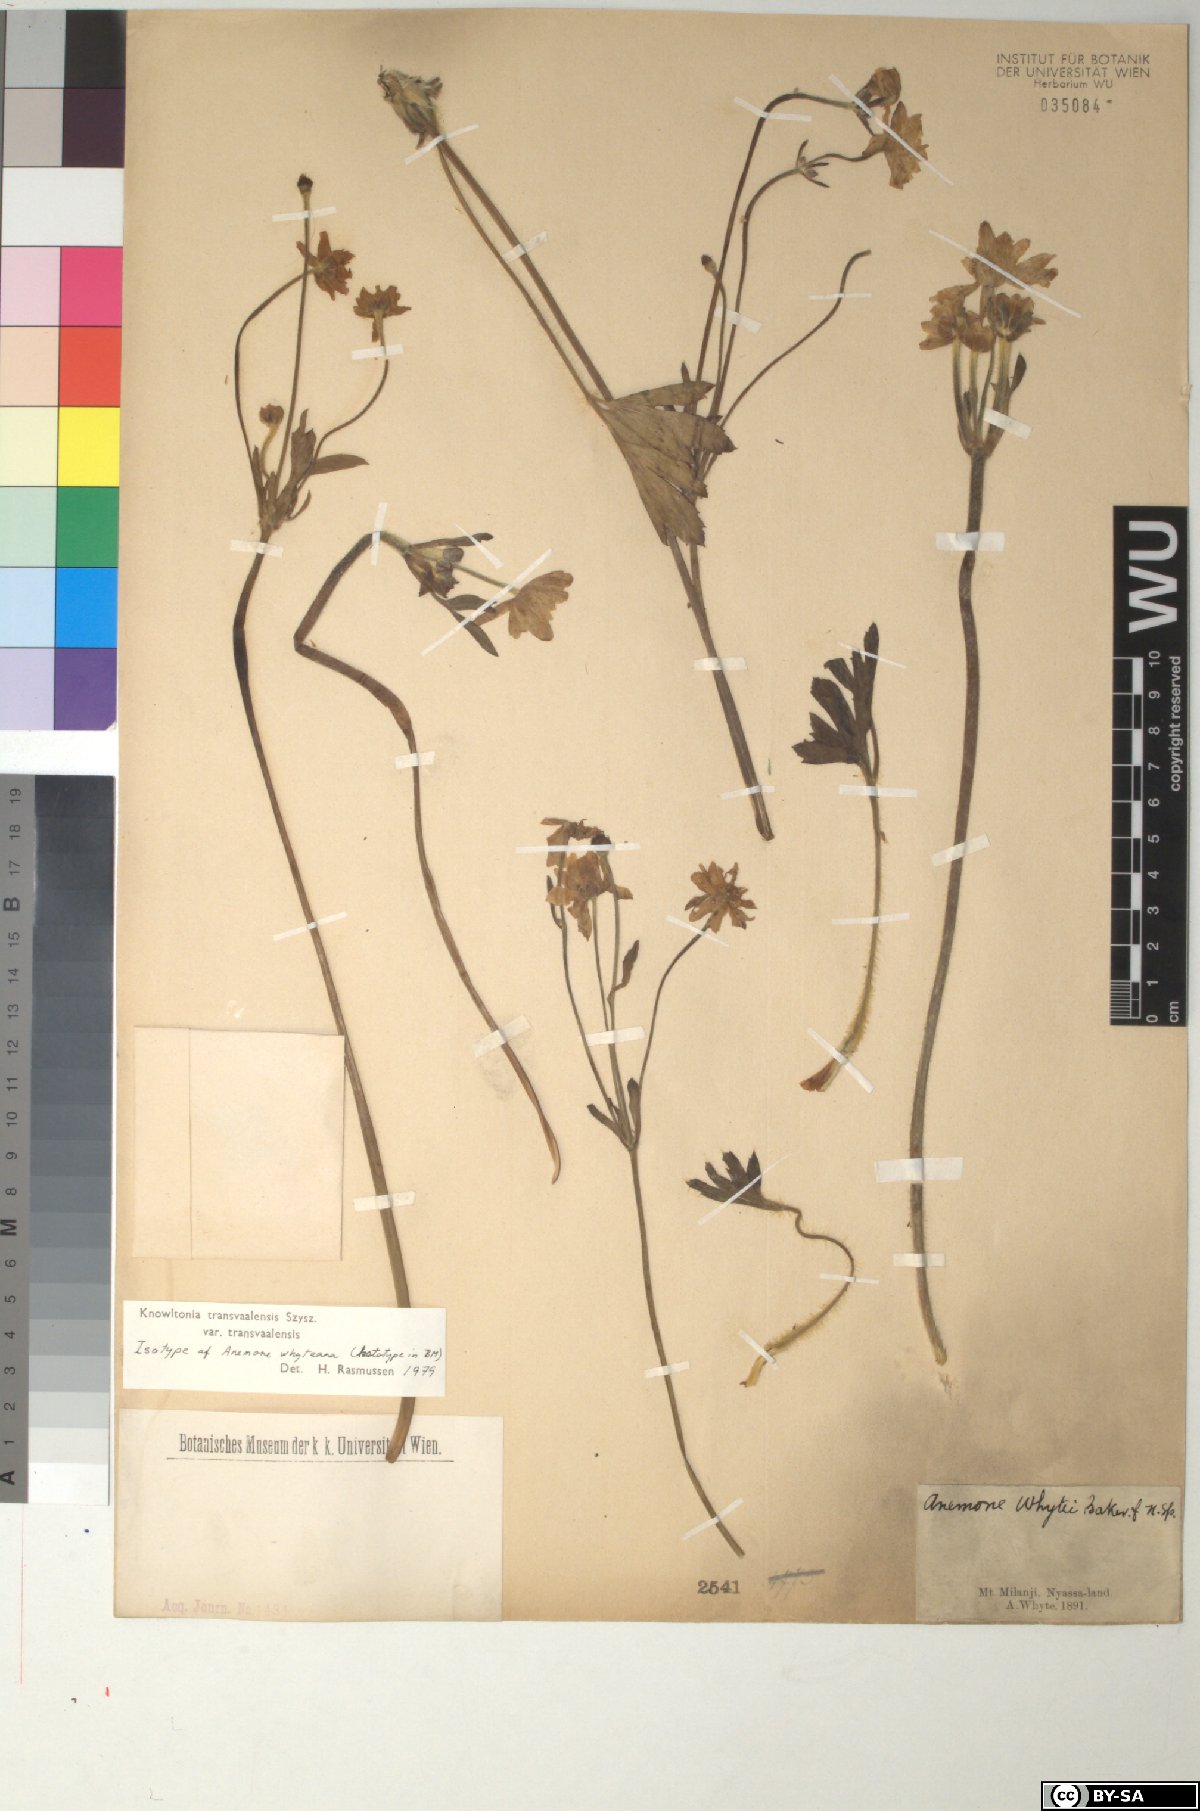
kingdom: Plantae
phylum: Tracheophyta
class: Magnoliopsida
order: Ranunculales
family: Ranunculaceae
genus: Knowltonia
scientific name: Knowltonia whyteana
